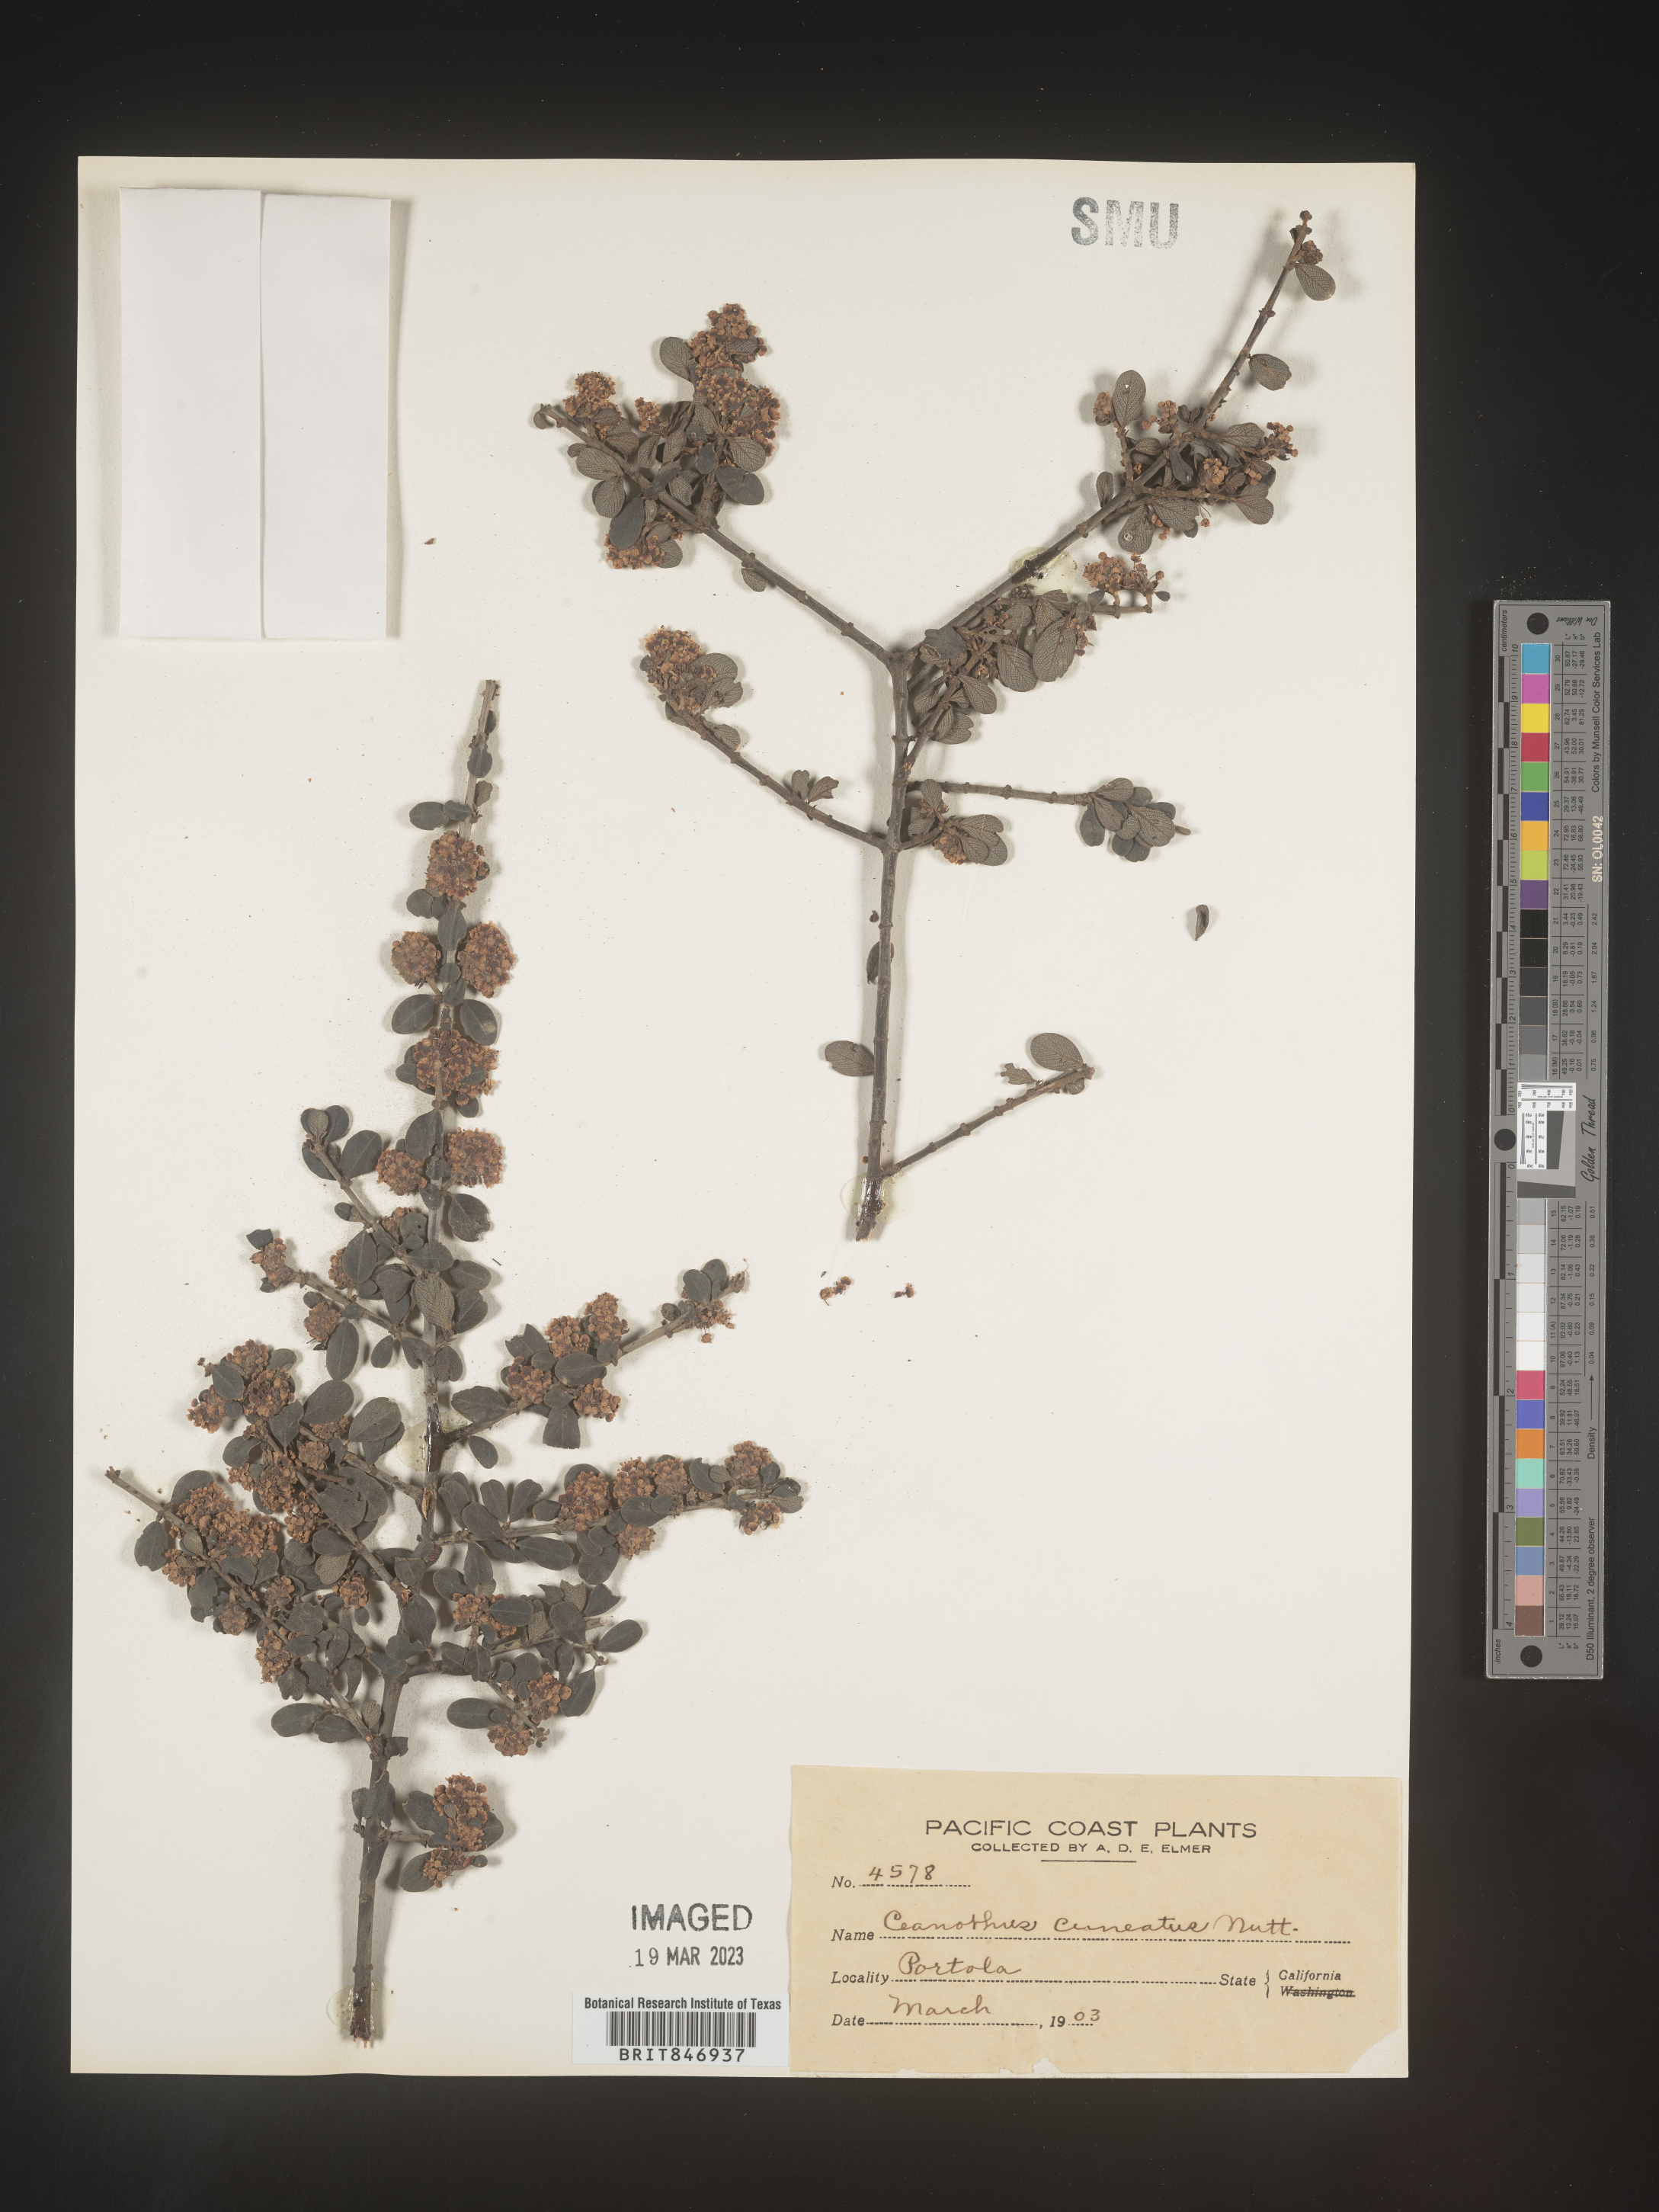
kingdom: Plantae
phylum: Tracheophyta
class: Magnoliopsida
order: Rosales
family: Rhamnaceae
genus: Ceanothus
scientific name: Ceanothus cuneatus
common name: Cuneate ceanothus
